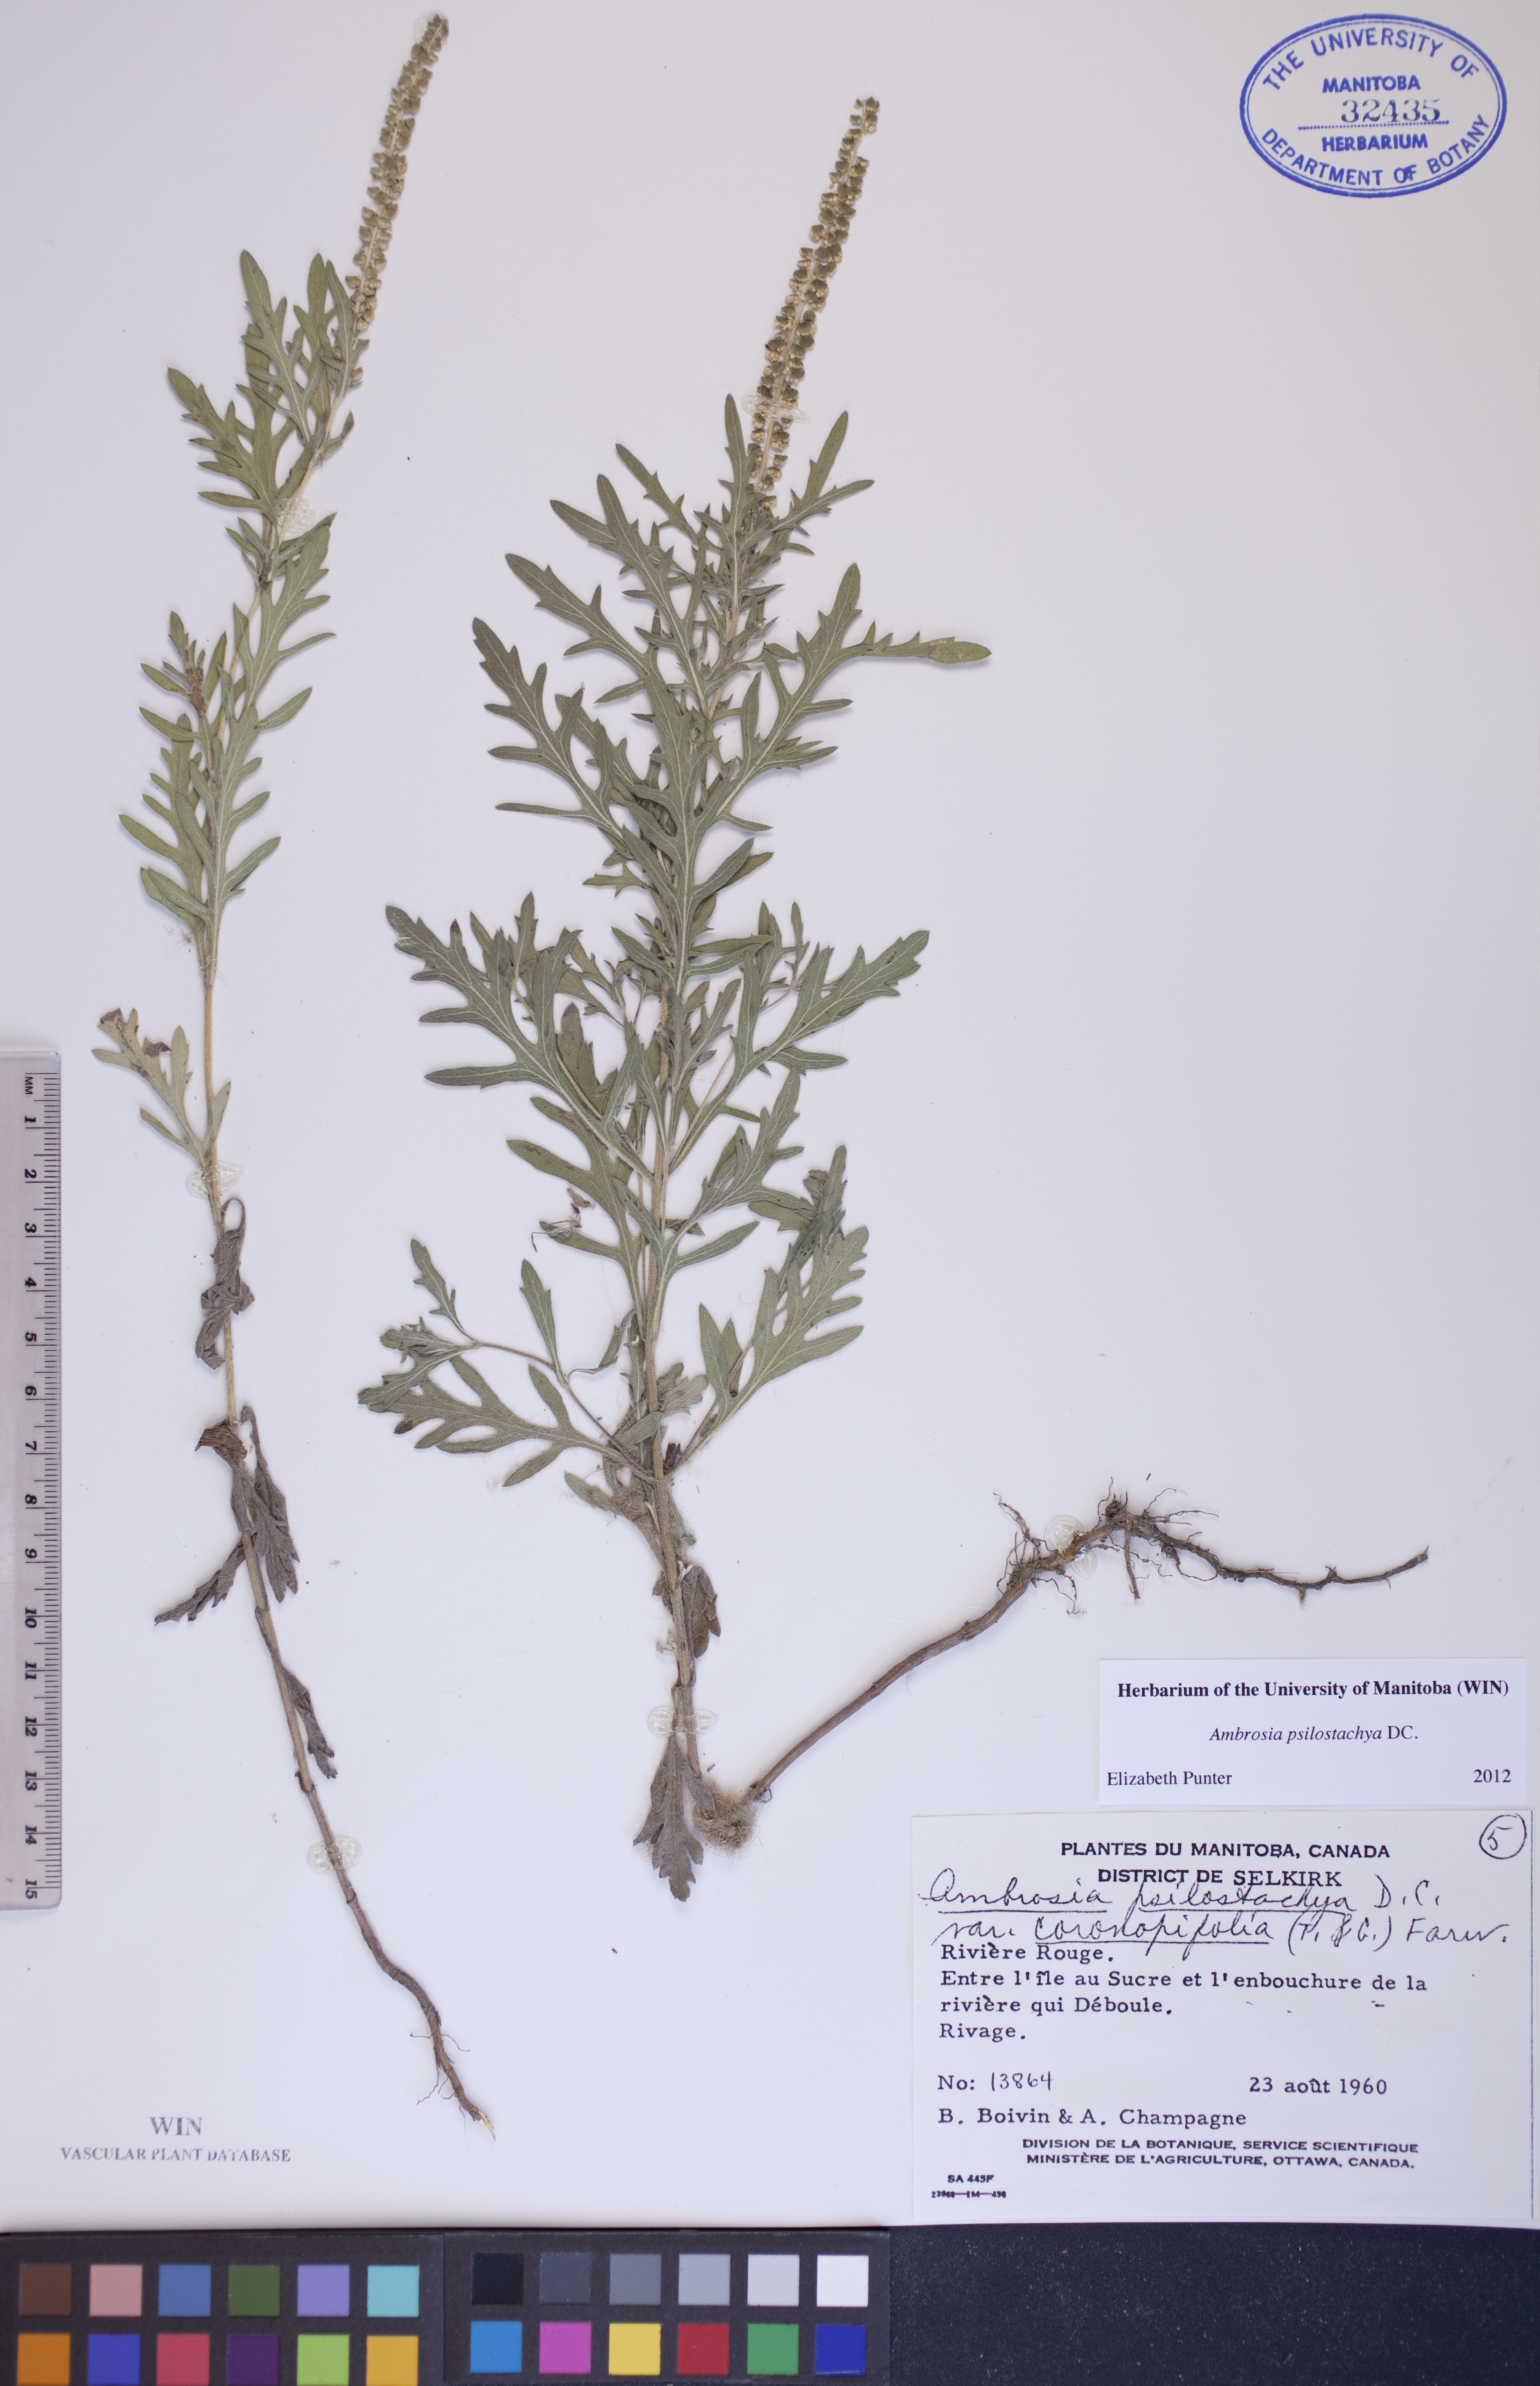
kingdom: Plantae
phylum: Tracheophyta
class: Magnoliopsida
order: Asterales
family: Asteraceae
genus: Ambrosia
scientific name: Ambrosia psilostachya
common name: Perennial ragweed
